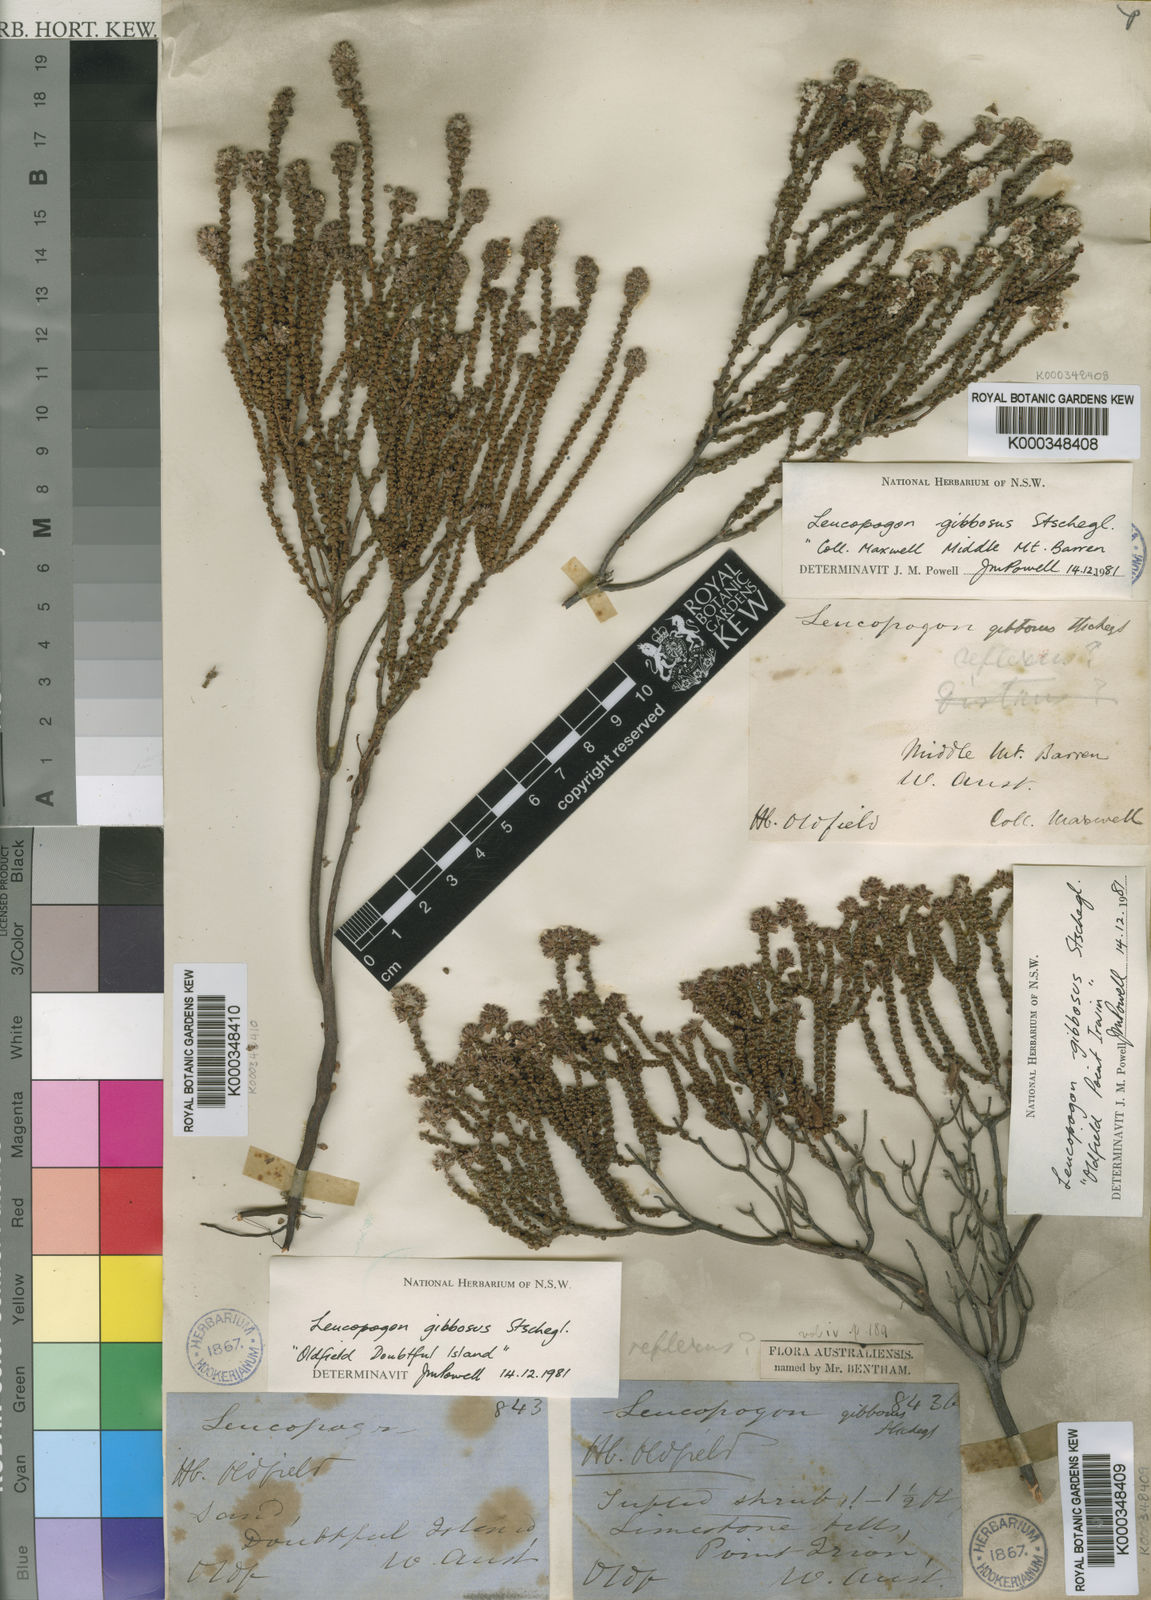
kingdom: Plantae
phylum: Tracheophyta
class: Magnoliopsida
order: Ericales
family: Ericaceae
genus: Leucopogon
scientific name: Leucopogon gibbosus
